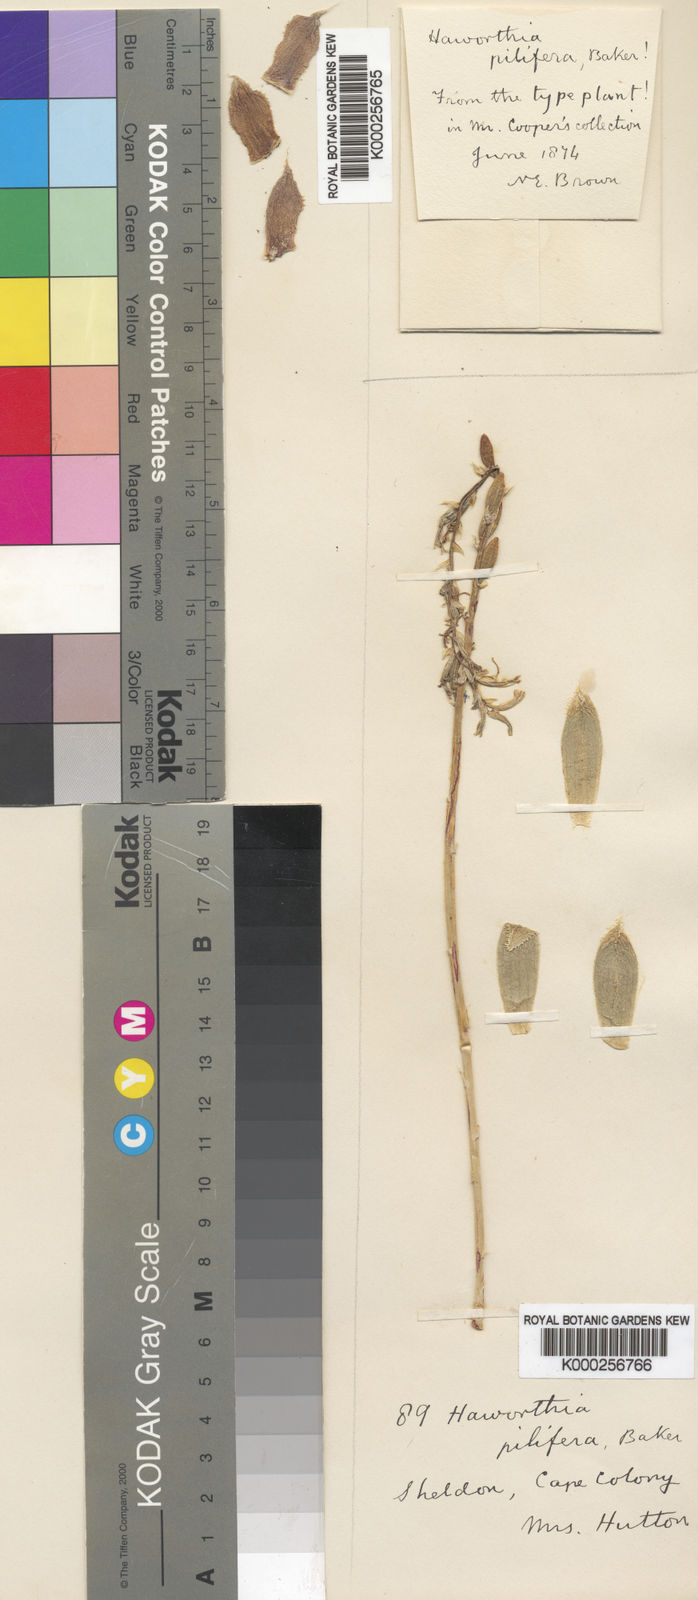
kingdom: Plantae
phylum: Tracheophyta
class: Liliopsida
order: Asparagales
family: Asphodelaceae
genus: Haworthia
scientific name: Haworthia cymbiformis
